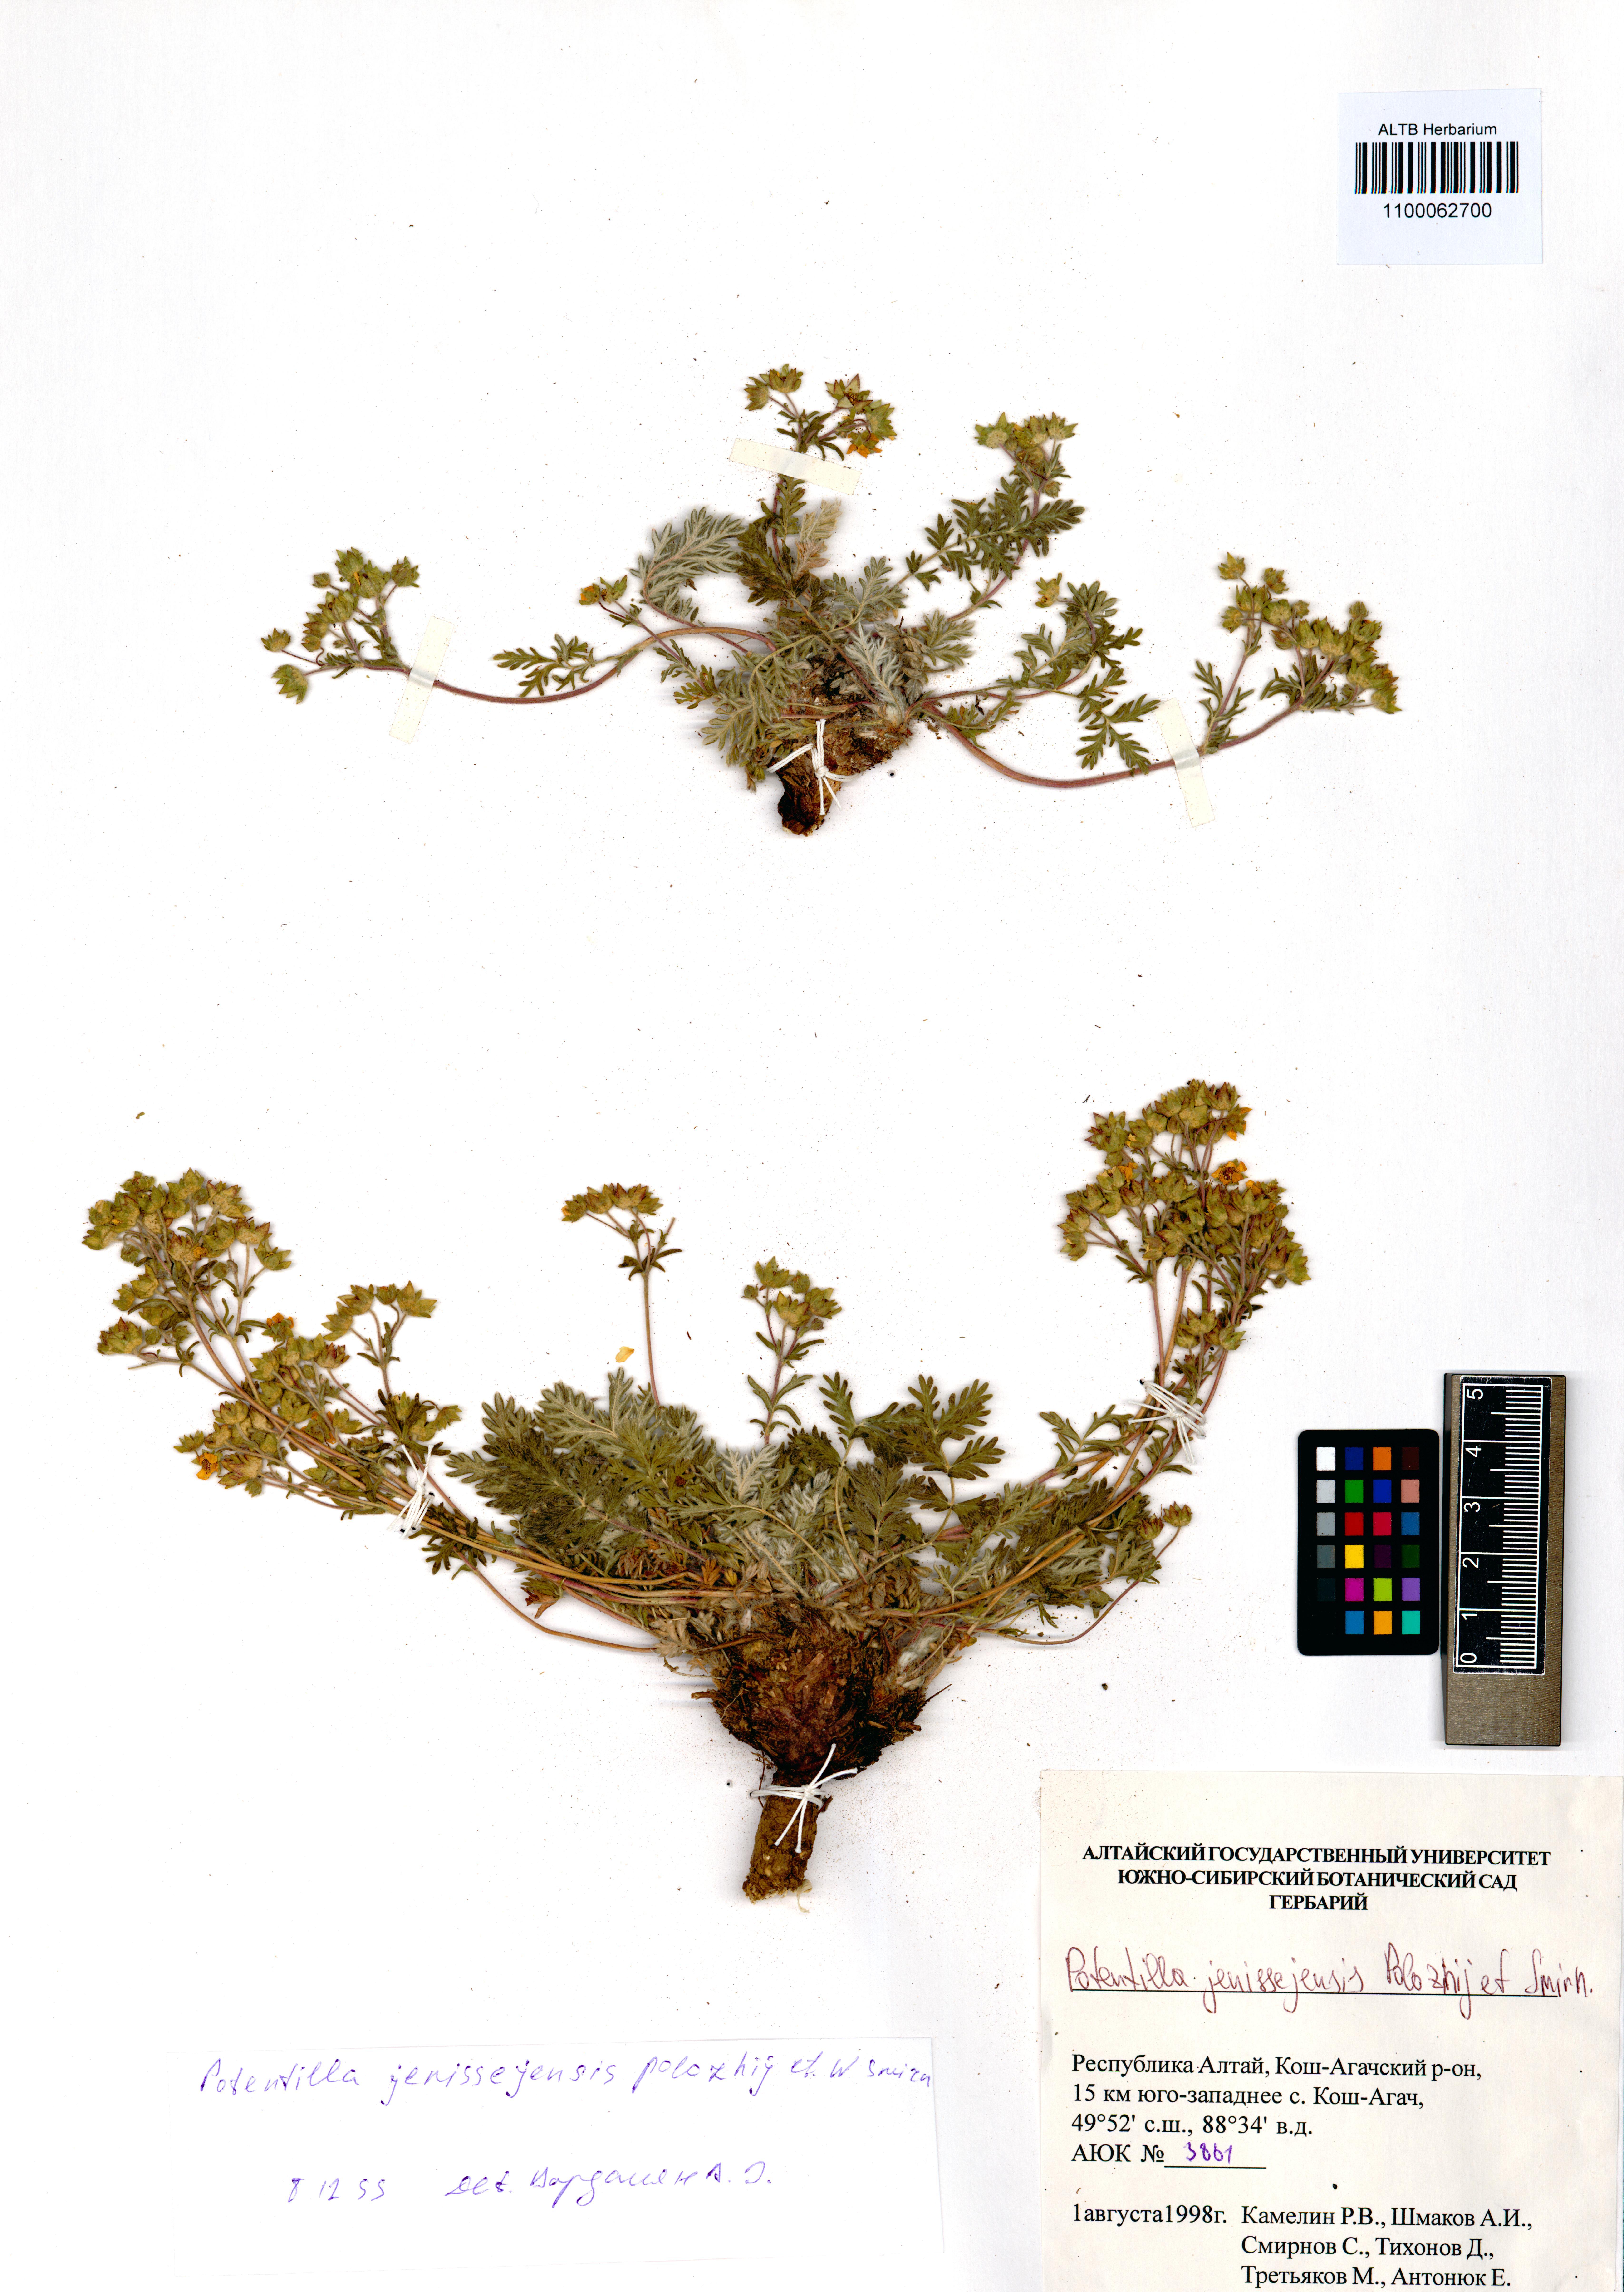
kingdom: Plantae
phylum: Tracheophyta
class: Magnoliopsida
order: Rosales
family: Rosaceae
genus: Potentilla
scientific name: Potentilla jenissejensis
